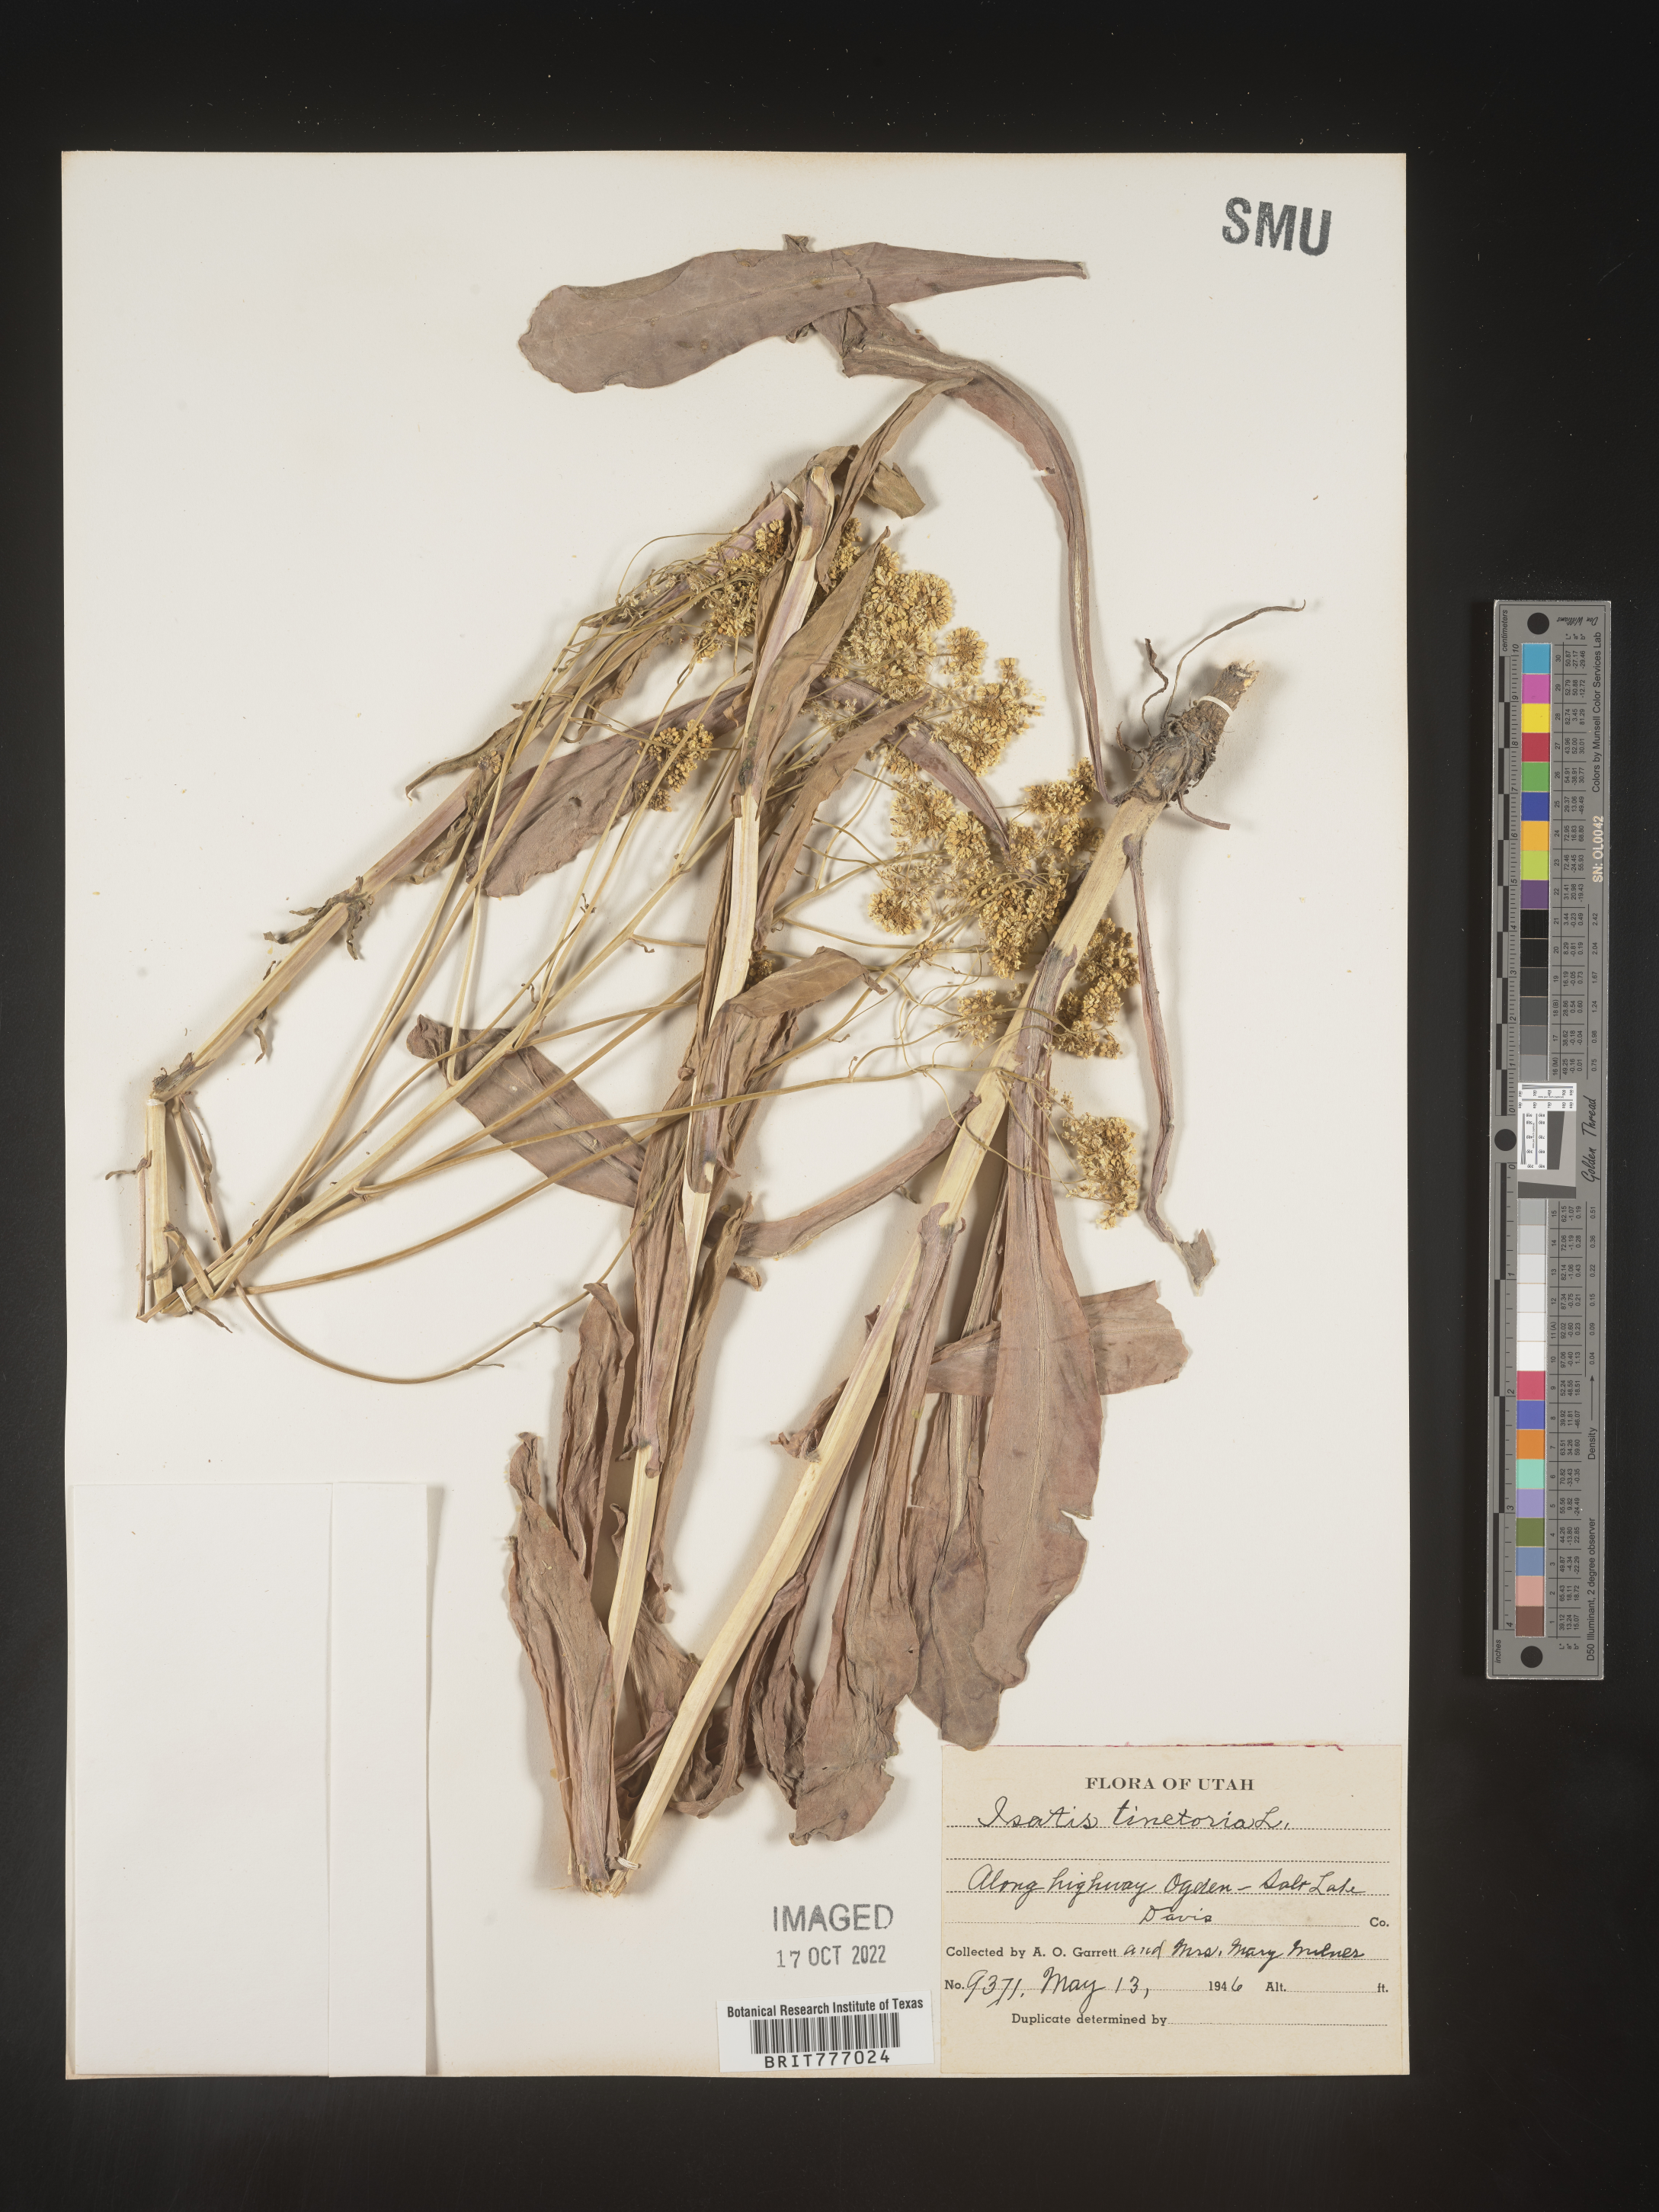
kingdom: Plantae
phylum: Tracheophyta
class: Magnoliopsida
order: Brassicales
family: Brassicaceae
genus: Isatis
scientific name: Isatis
